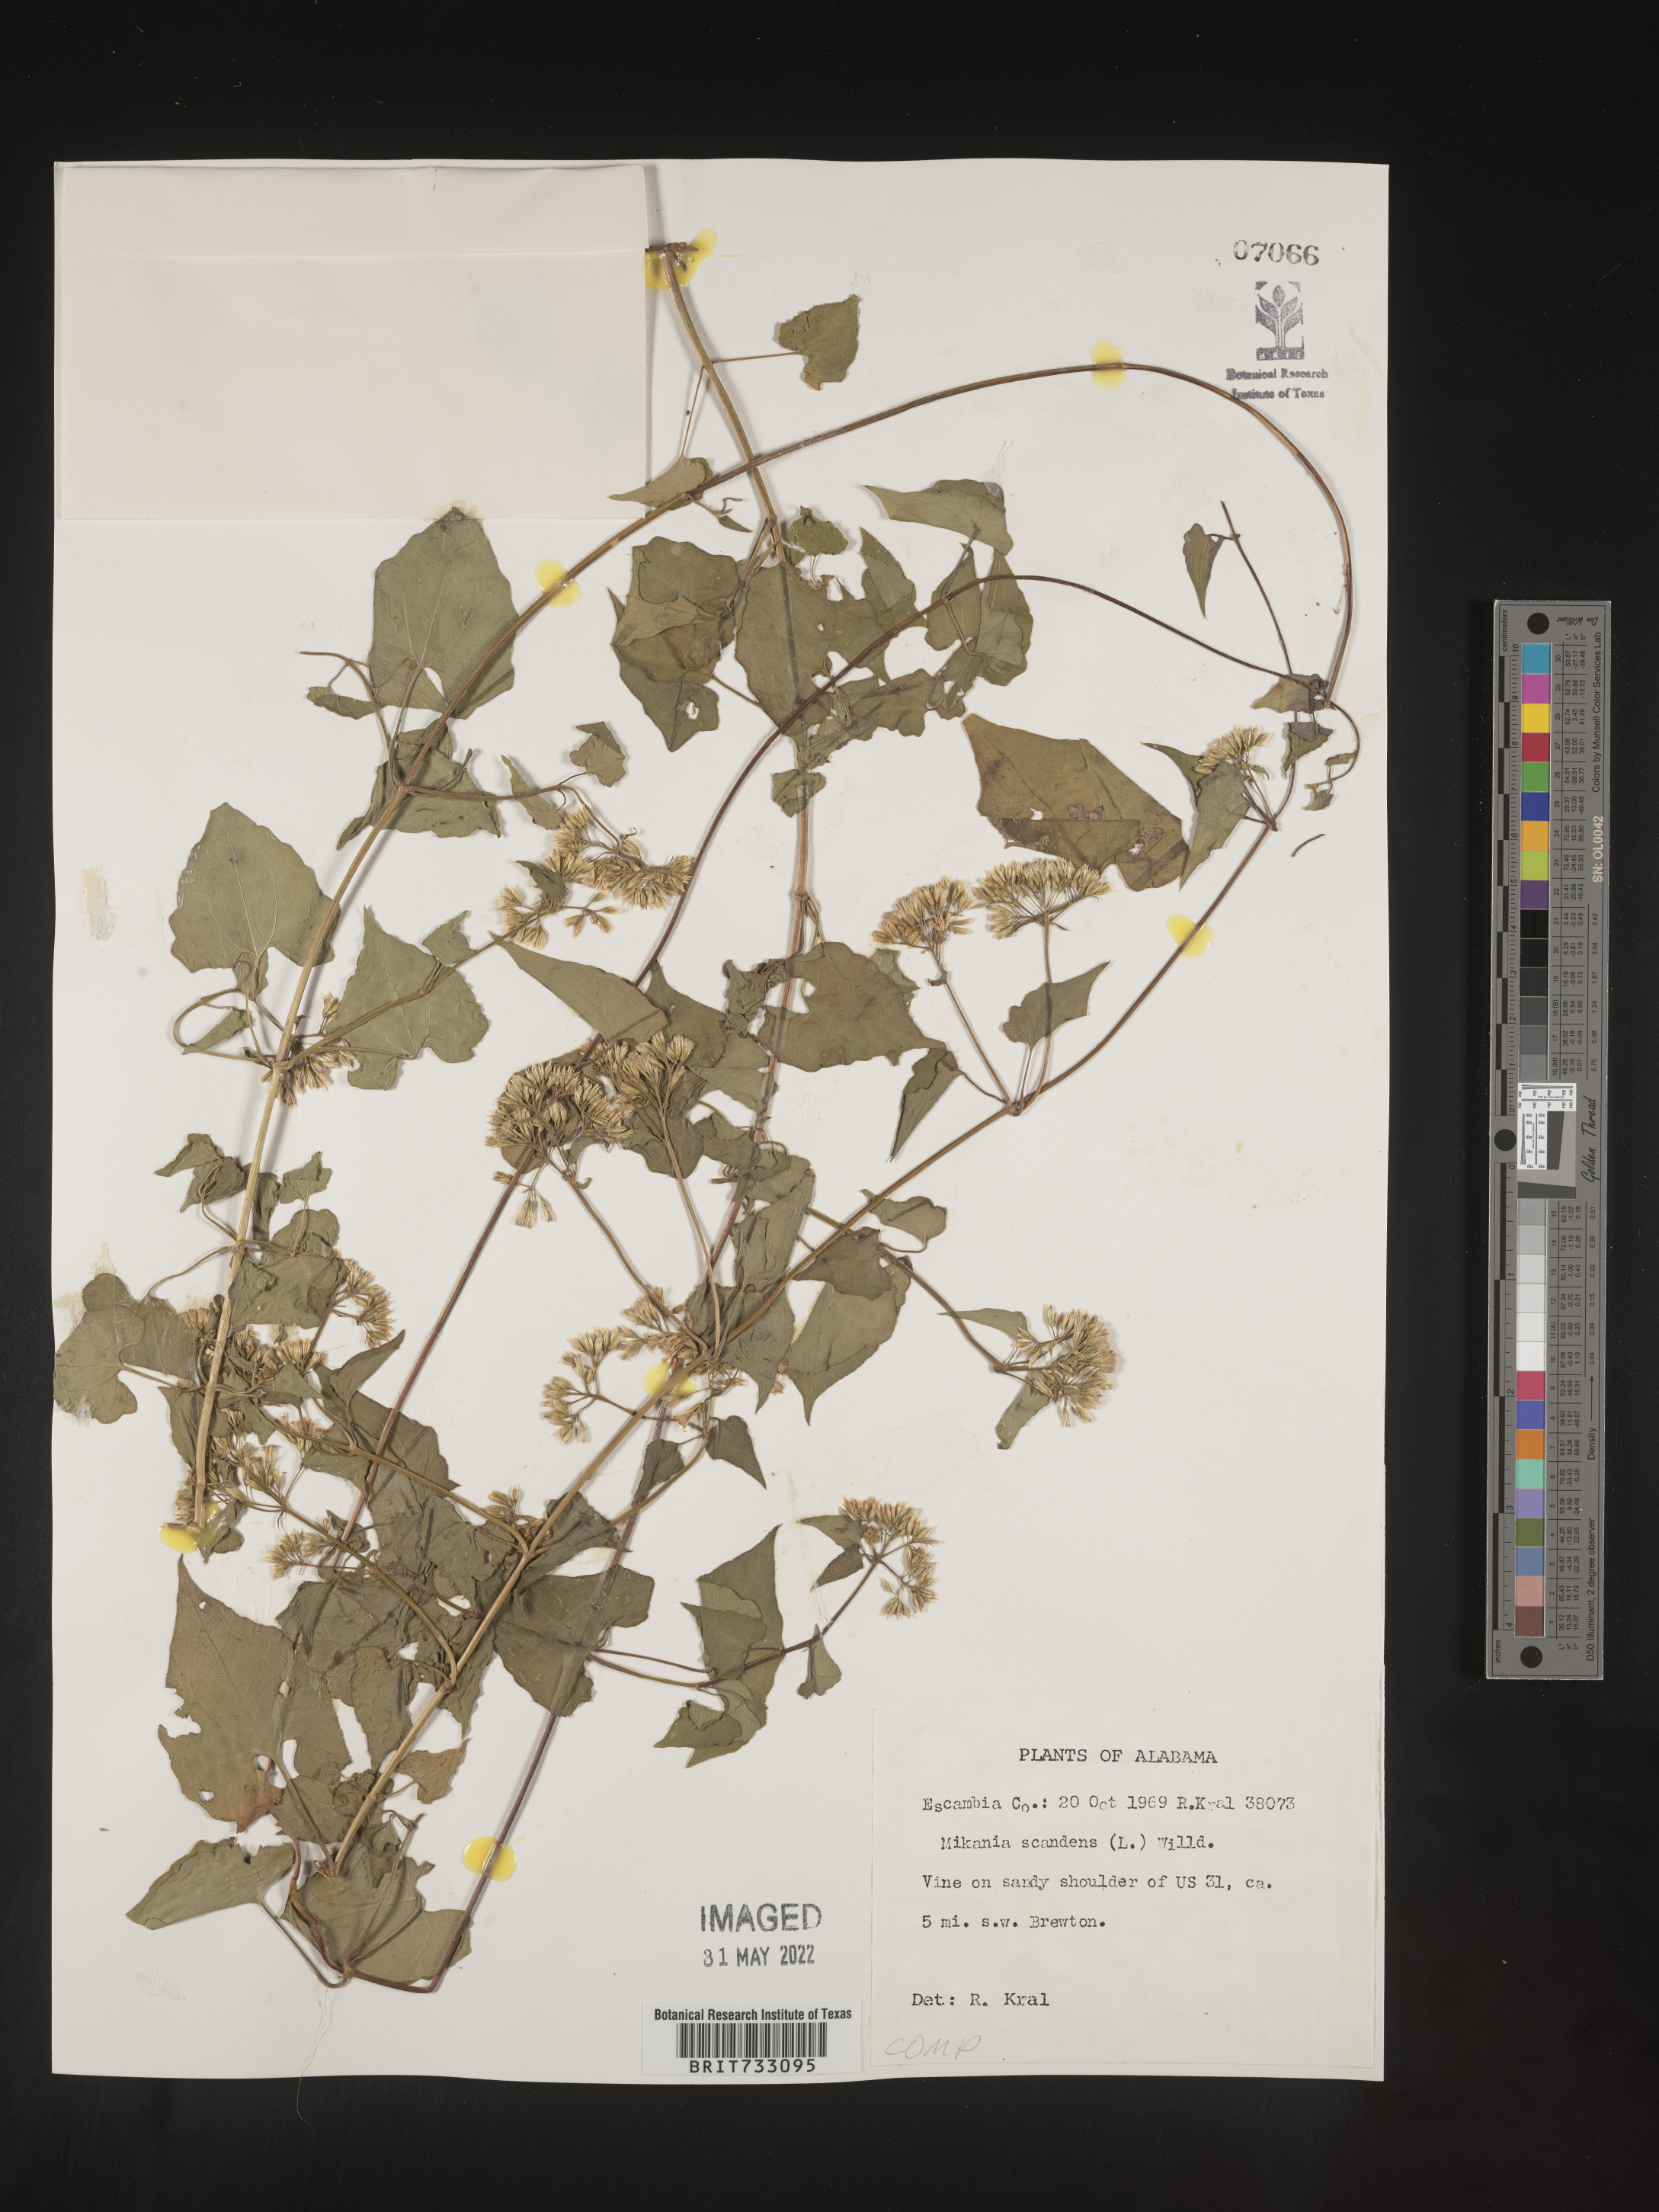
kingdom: Plantae
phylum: Tracheophyta
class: Magnoliopsida
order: Asterales
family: Asteraceae
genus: Mikania
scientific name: Mikania scandens
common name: Climbing hempvine
